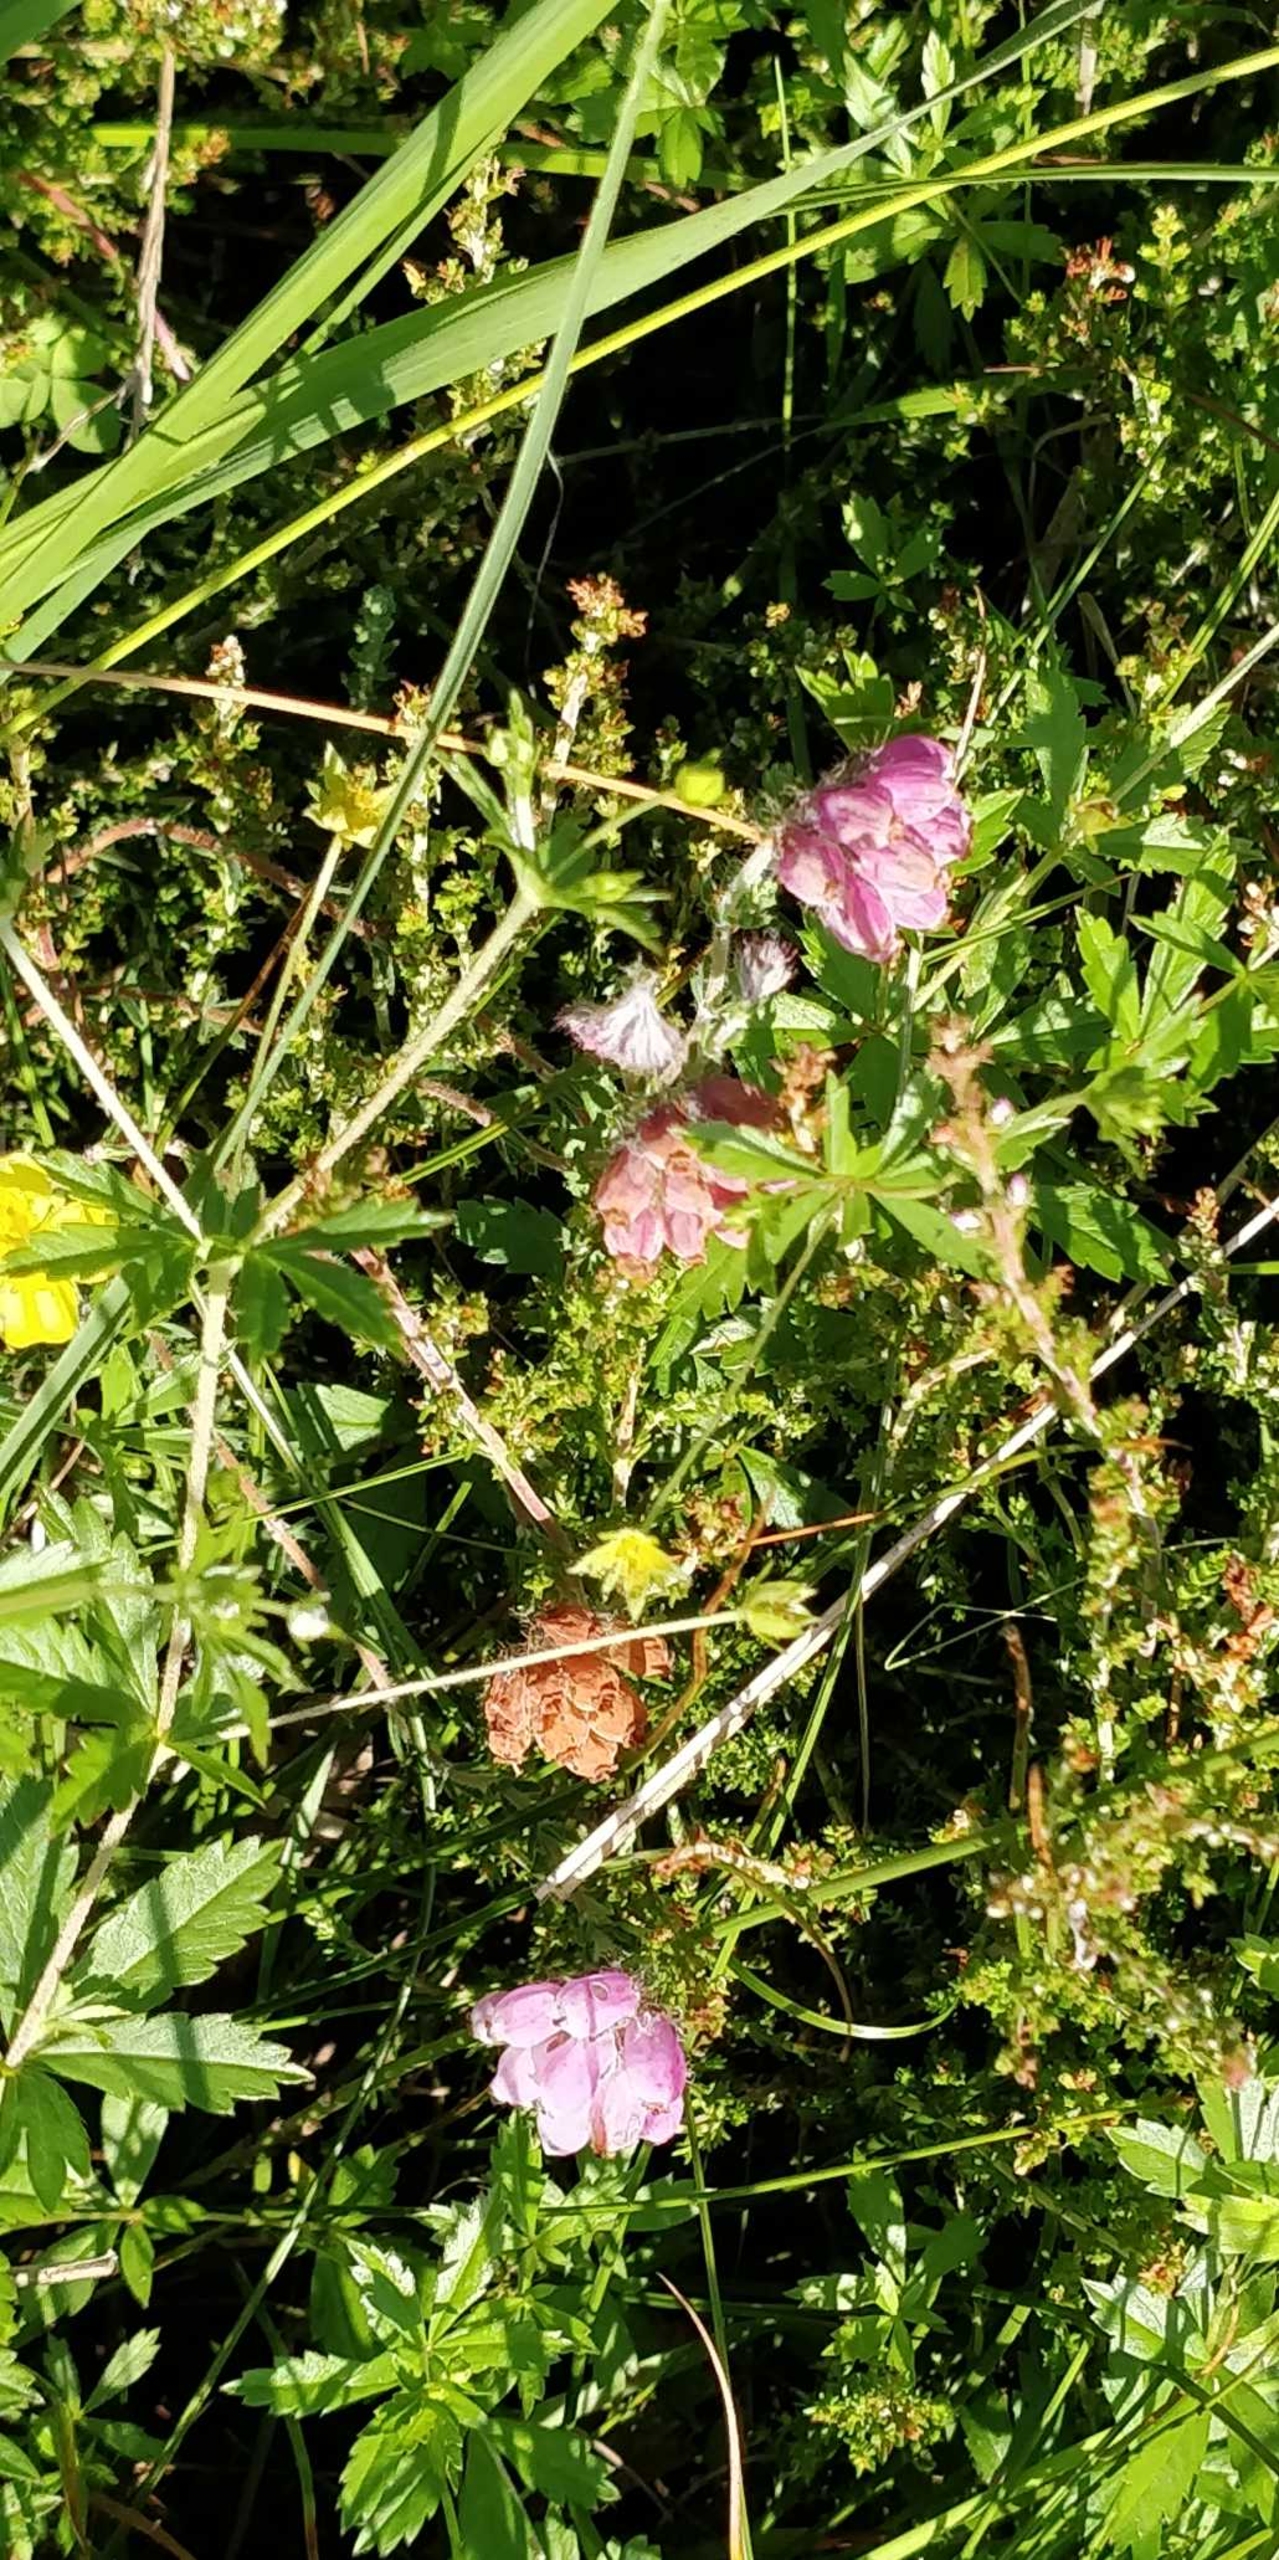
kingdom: Plantae
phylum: Tracheophyta
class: Magnoliopsida
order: Ericales
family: Ericaceae
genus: Erica
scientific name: Erica tetralix
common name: Klokkelyng
